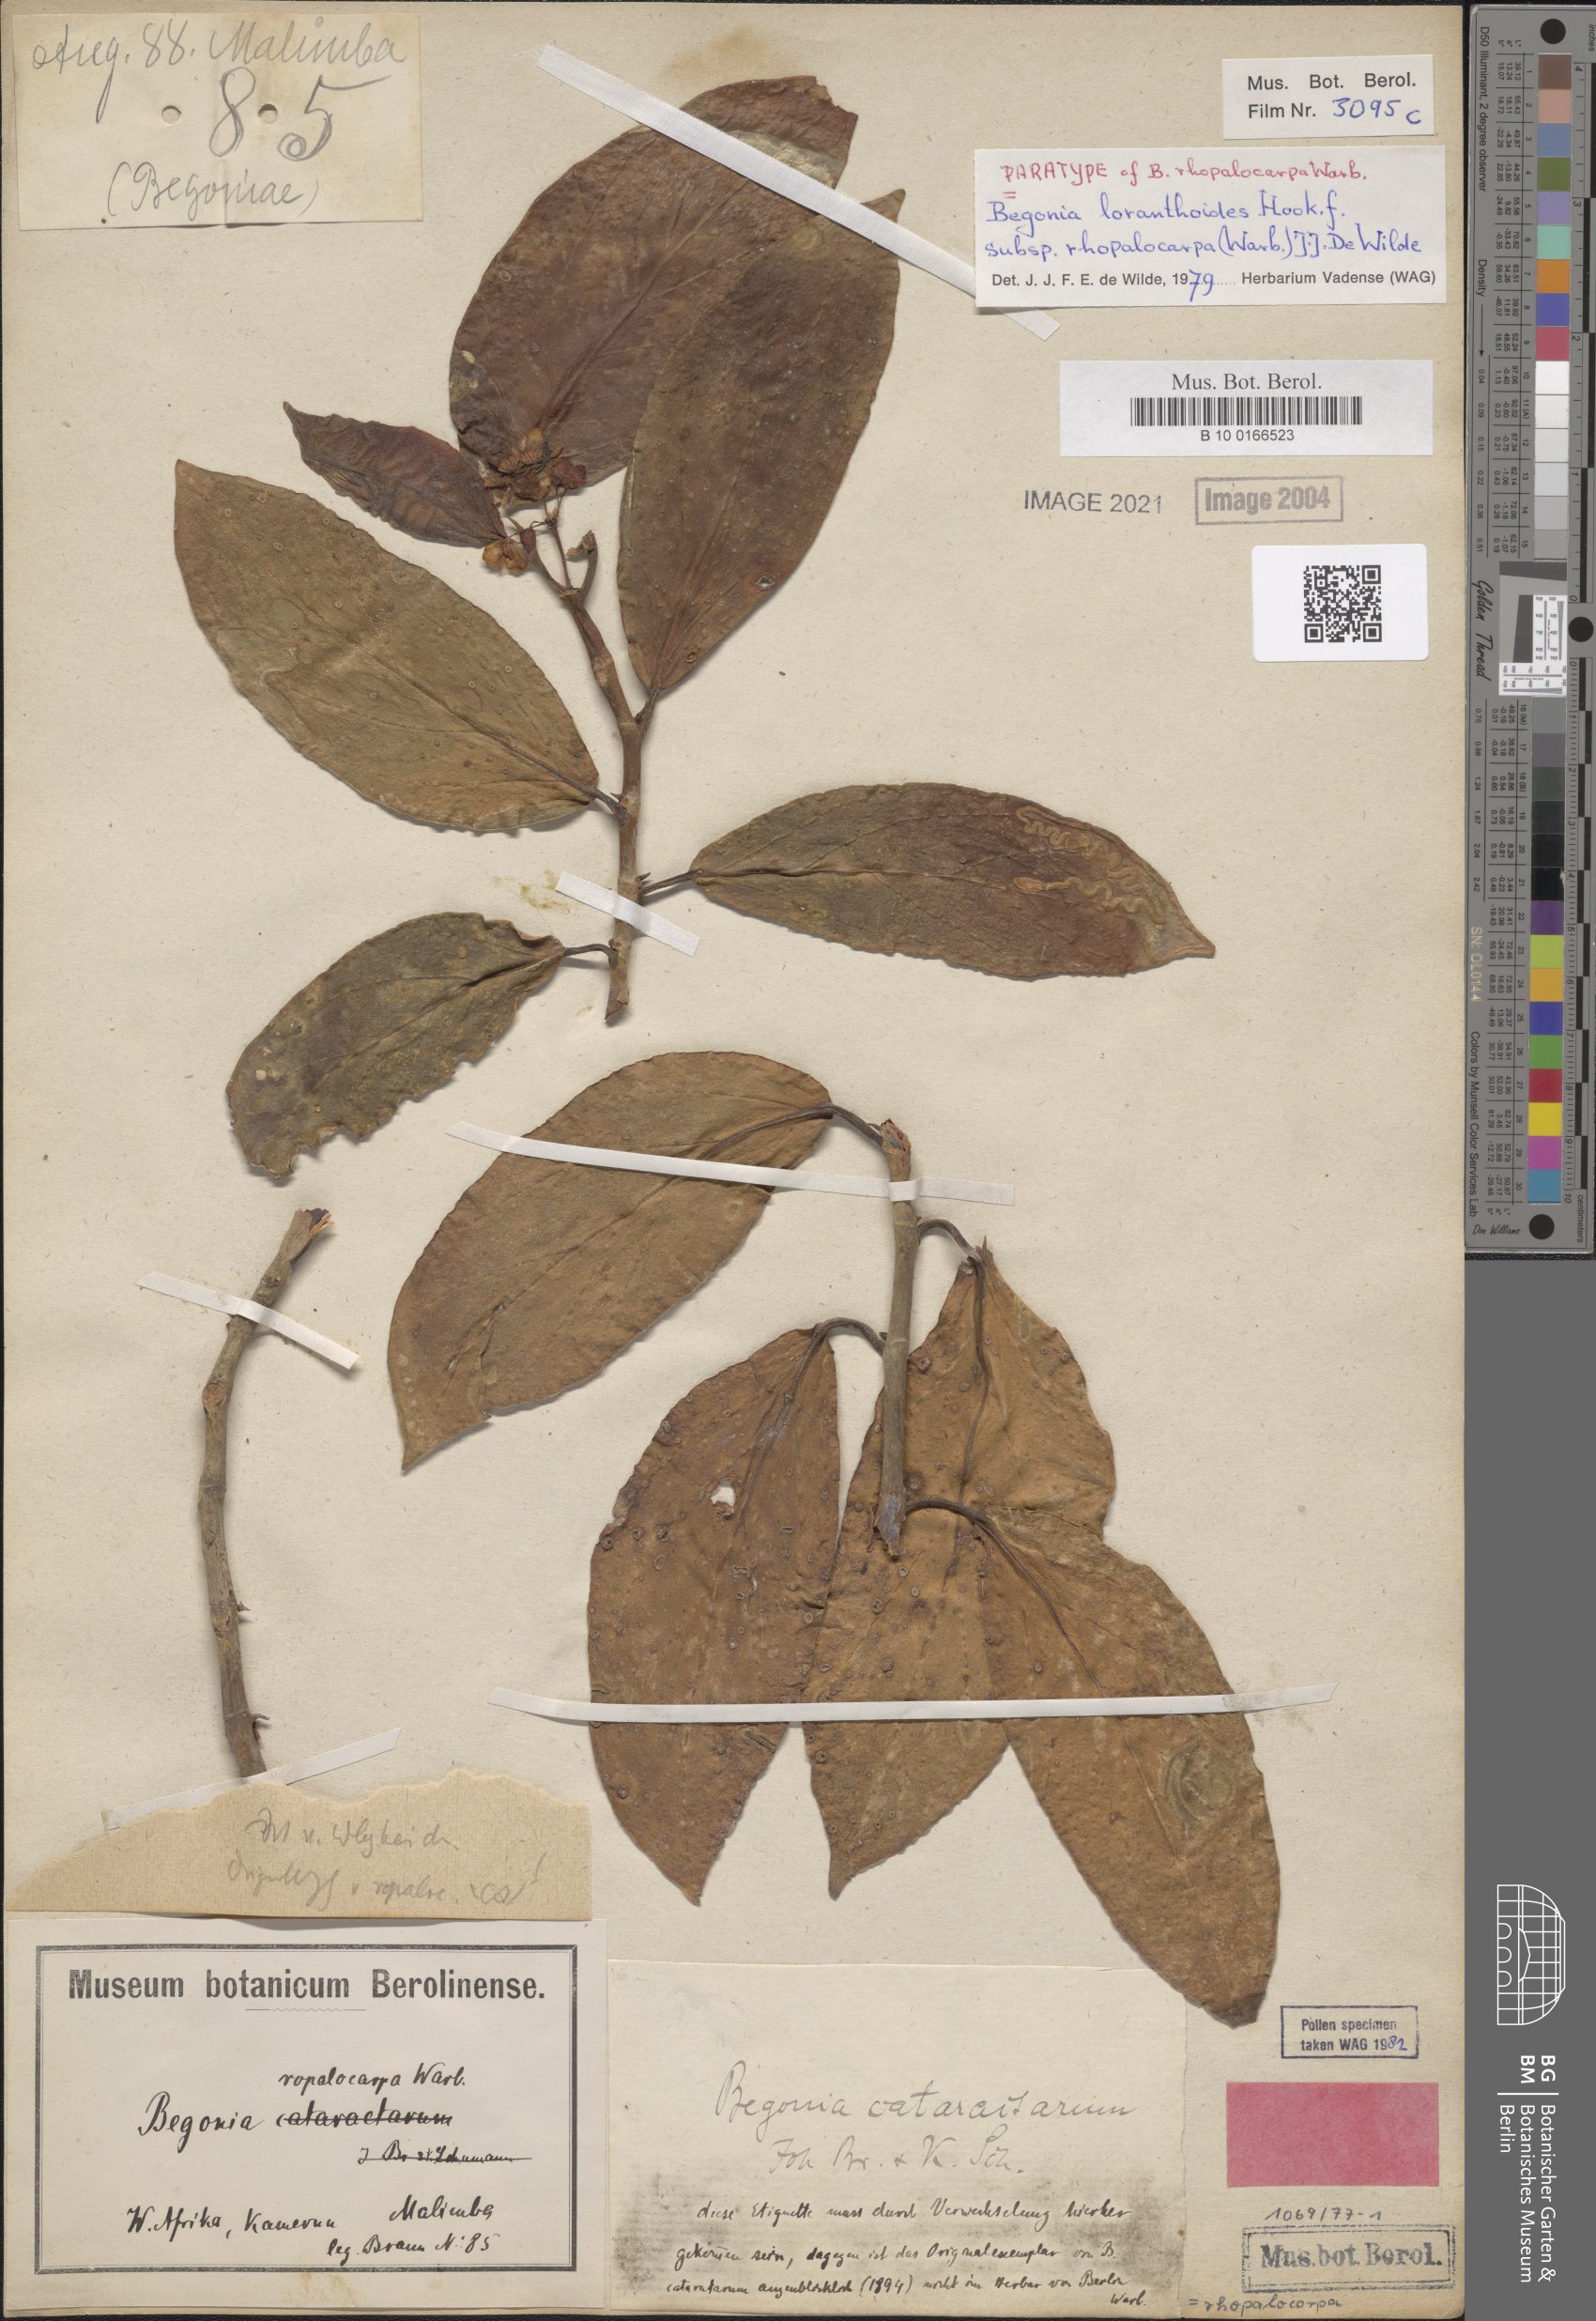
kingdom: Plantae
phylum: Tracheophyta
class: Magnoliopsida
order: Cucurbitales
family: Begoniaceae
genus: Begonia
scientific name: Begonia loranthoides
